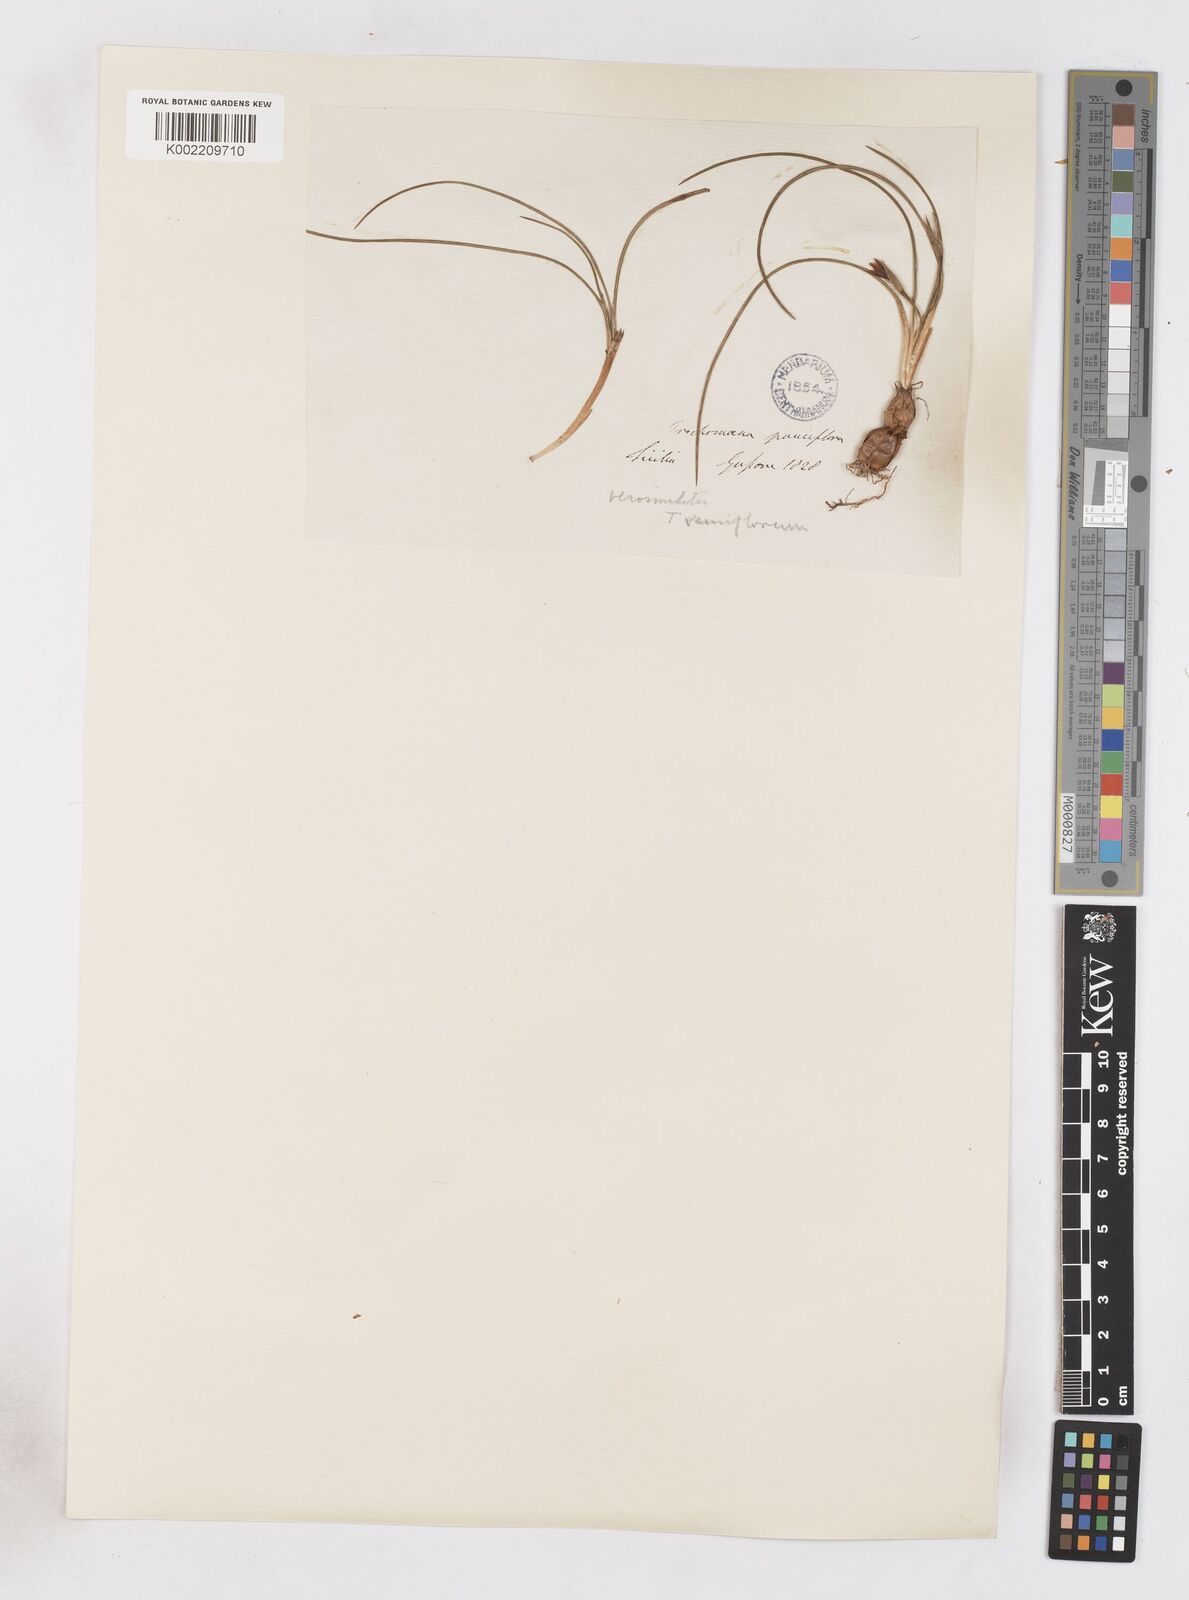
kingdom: Plantae
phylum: Tracheophyta
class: Liliopsida
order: Asparagales
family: Iridaceae
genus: Romulea
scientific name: Romulea ramiflora
